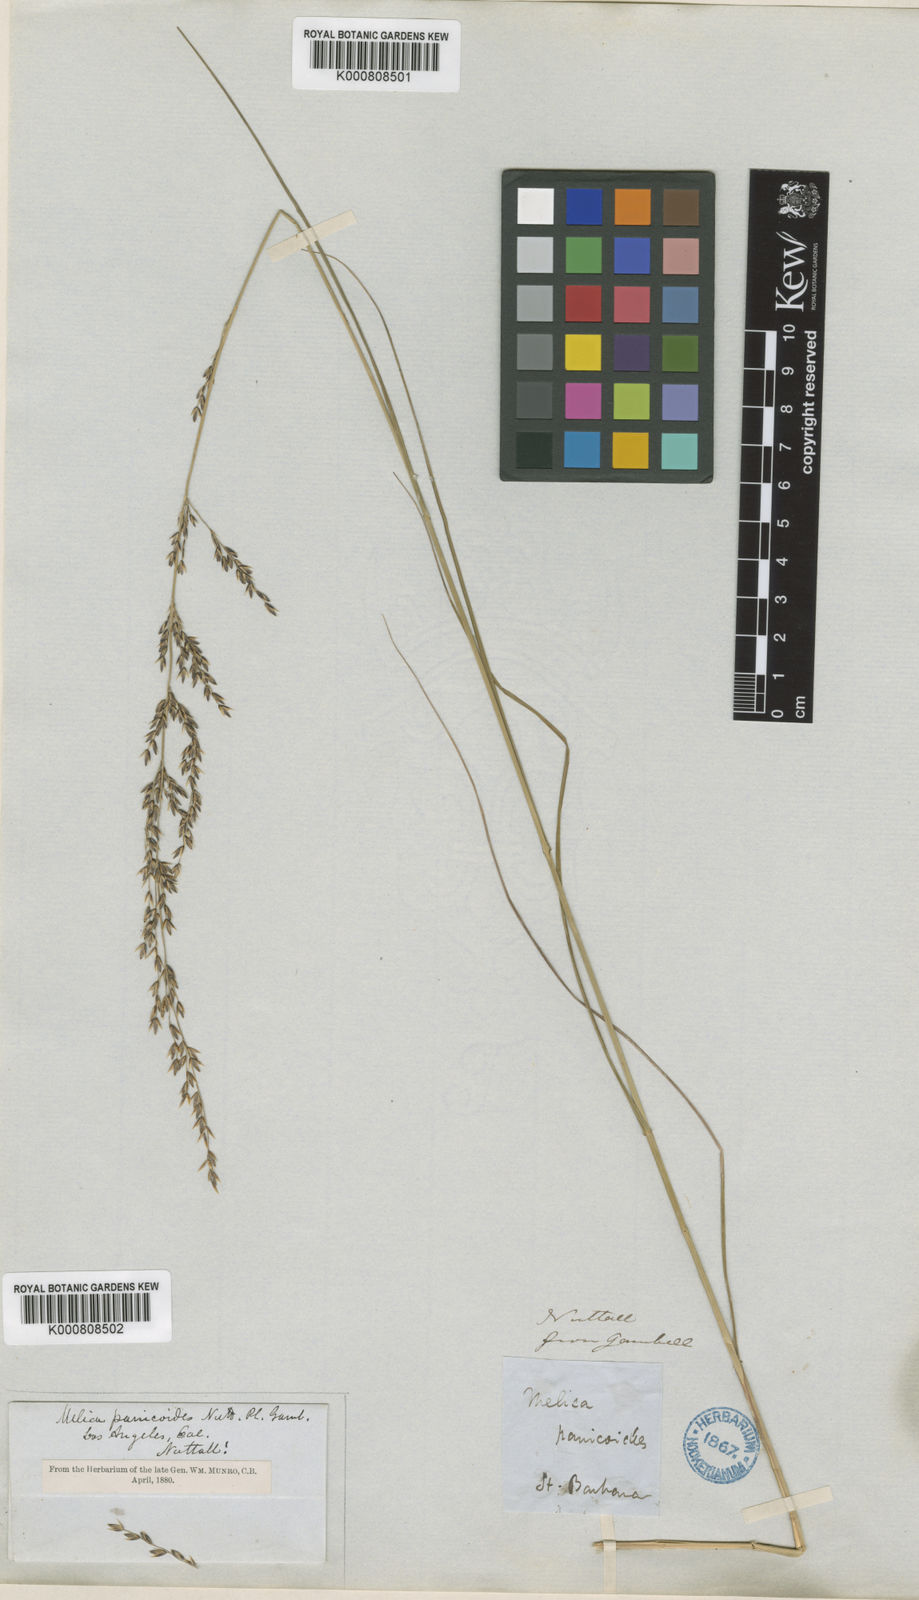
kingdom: Plantae
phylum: Tracheophyta
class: Liliopsida
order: Poales
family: Poaceae
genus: Melica
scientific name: Melica imperfecta
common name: California melic
